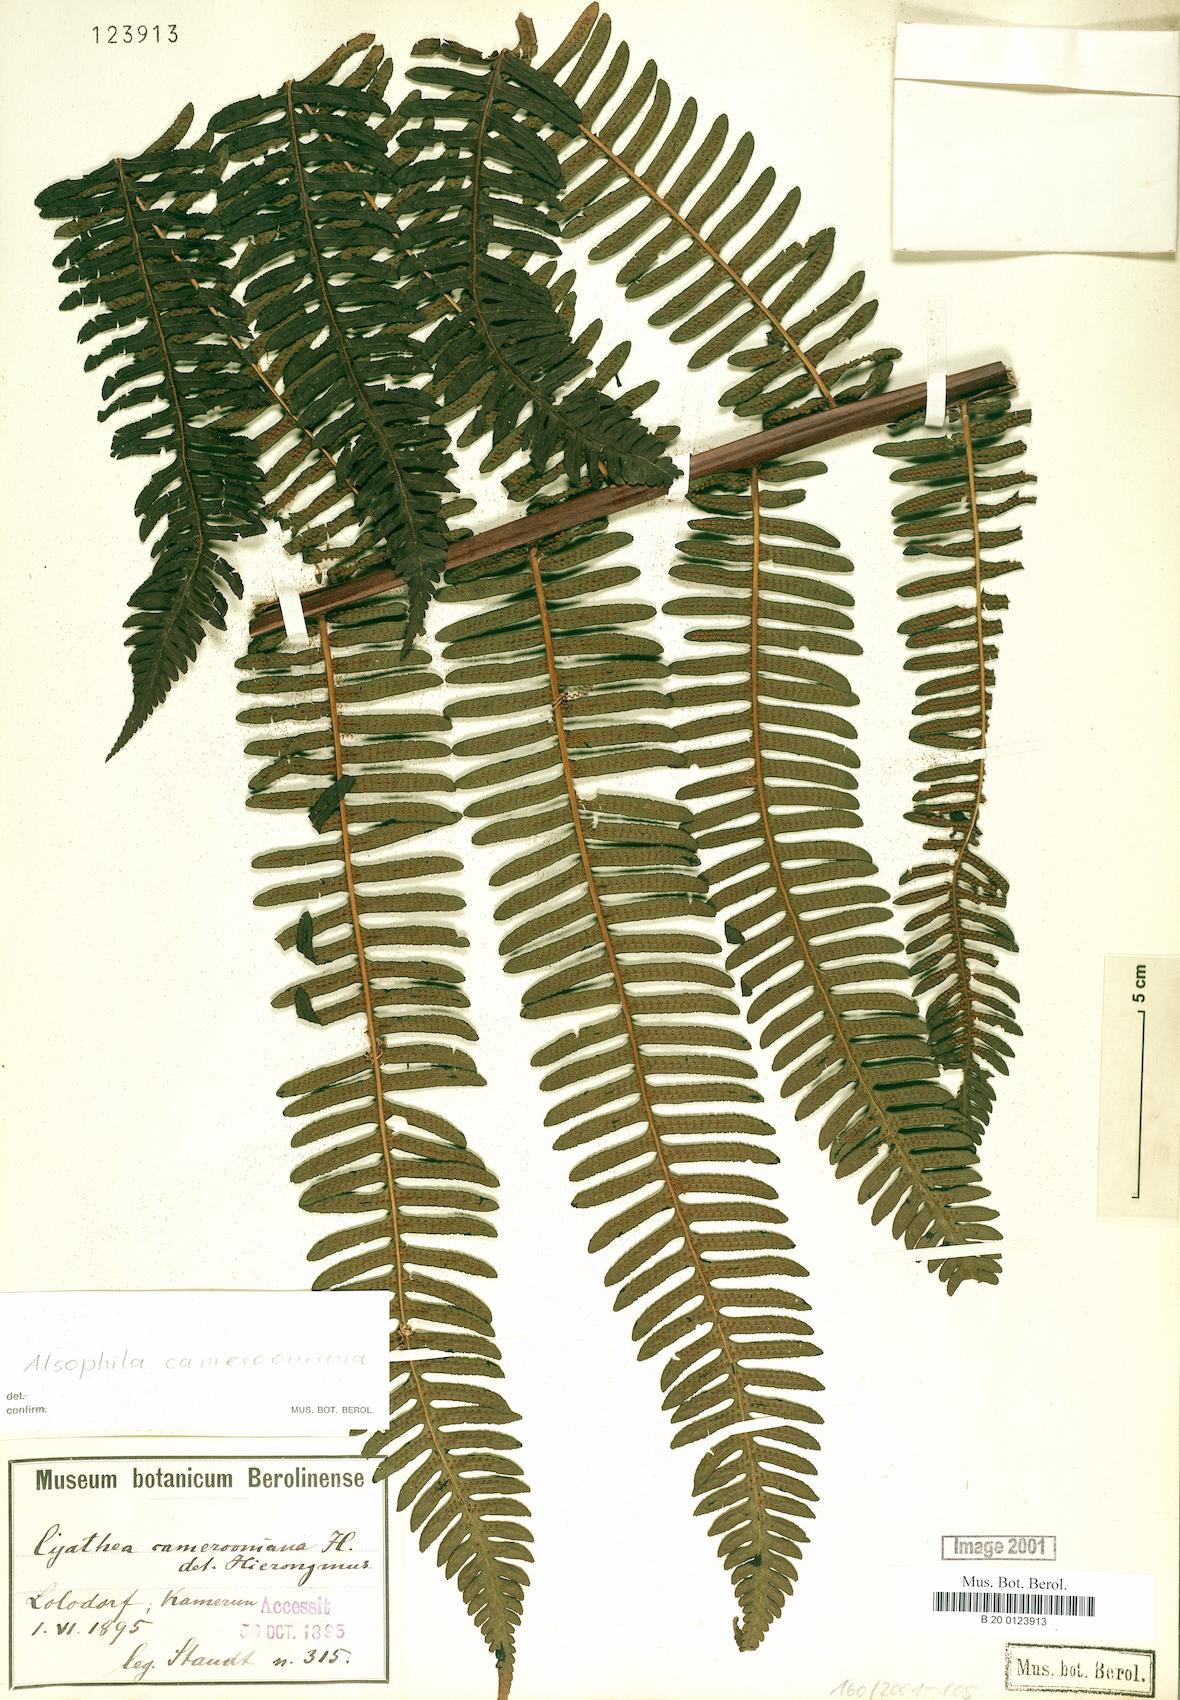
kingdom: Plantae
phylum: Tracheophyta
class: Polypodiopsida
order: Cyatheales
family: Cyatheaceae
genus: Alsophila
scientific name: Alsophila camerooniana
